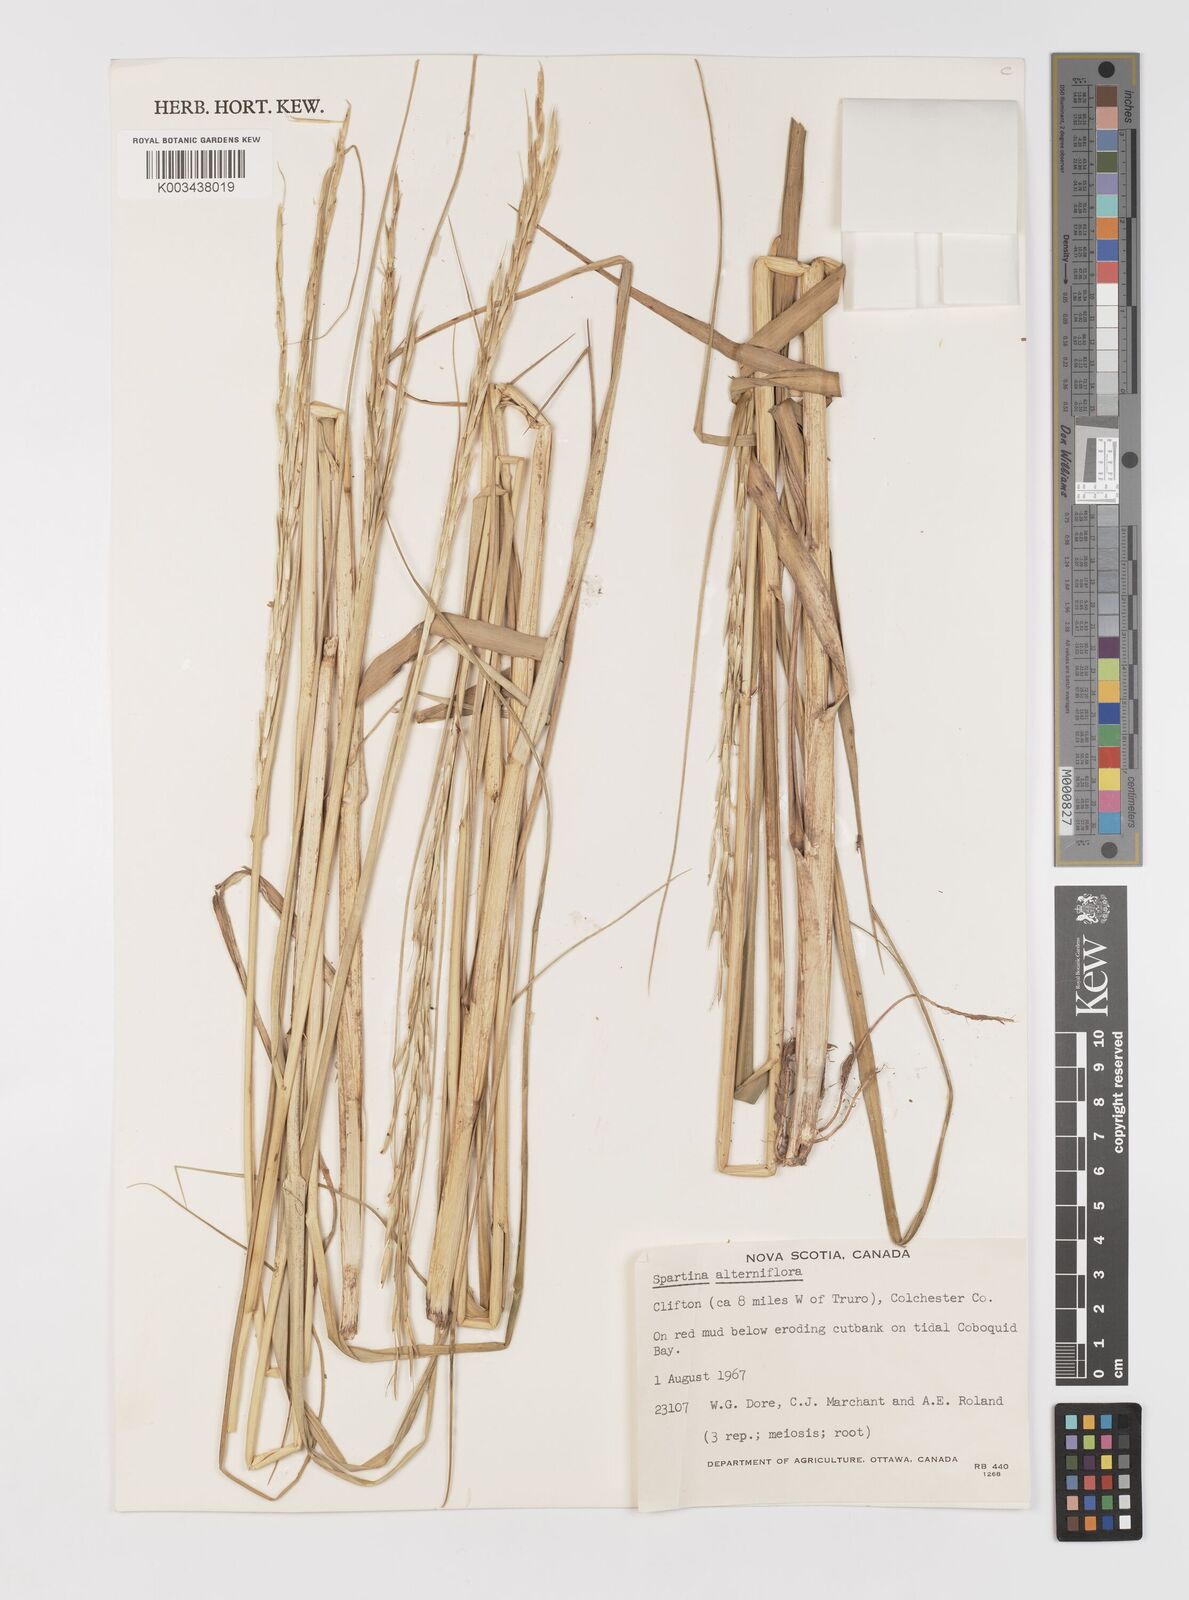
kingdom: Animalia
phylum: Mollusca
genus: Spartina
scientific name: Spartina
